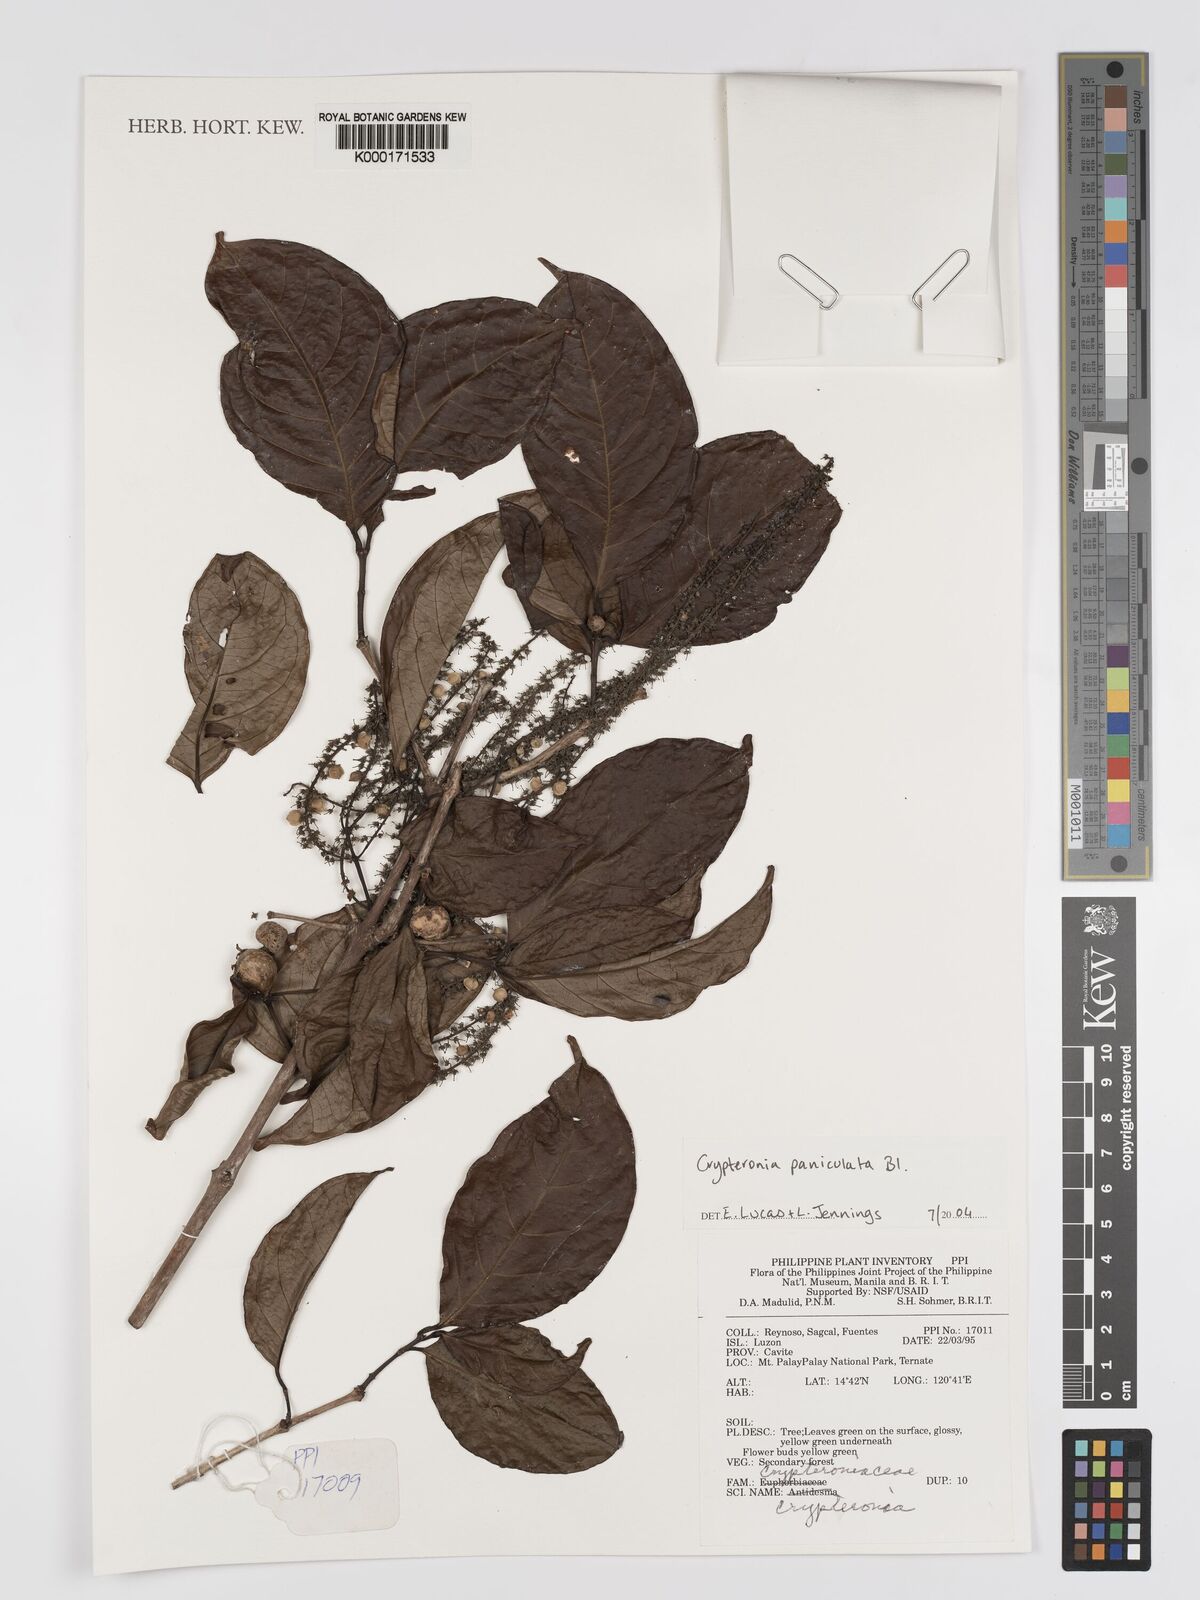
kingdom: Plantae
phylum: Tracheophyta
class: Magnoliopsida
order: Myrtales
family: Crypteroniaceae
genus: Crypteronia
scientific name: Crypteronia paniculata
